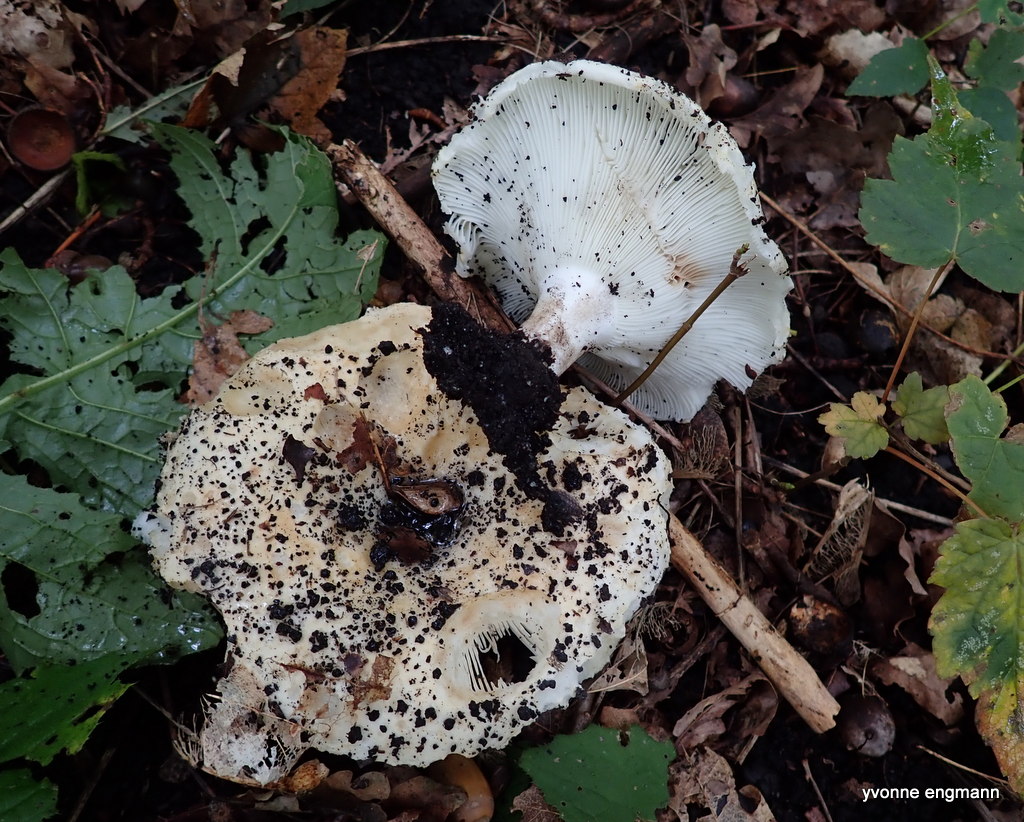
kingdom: Fungi
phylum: Basidiomycota
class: Agaricomycetes
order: Russulales
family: Russulaceae
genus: Russula
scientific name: Russula
